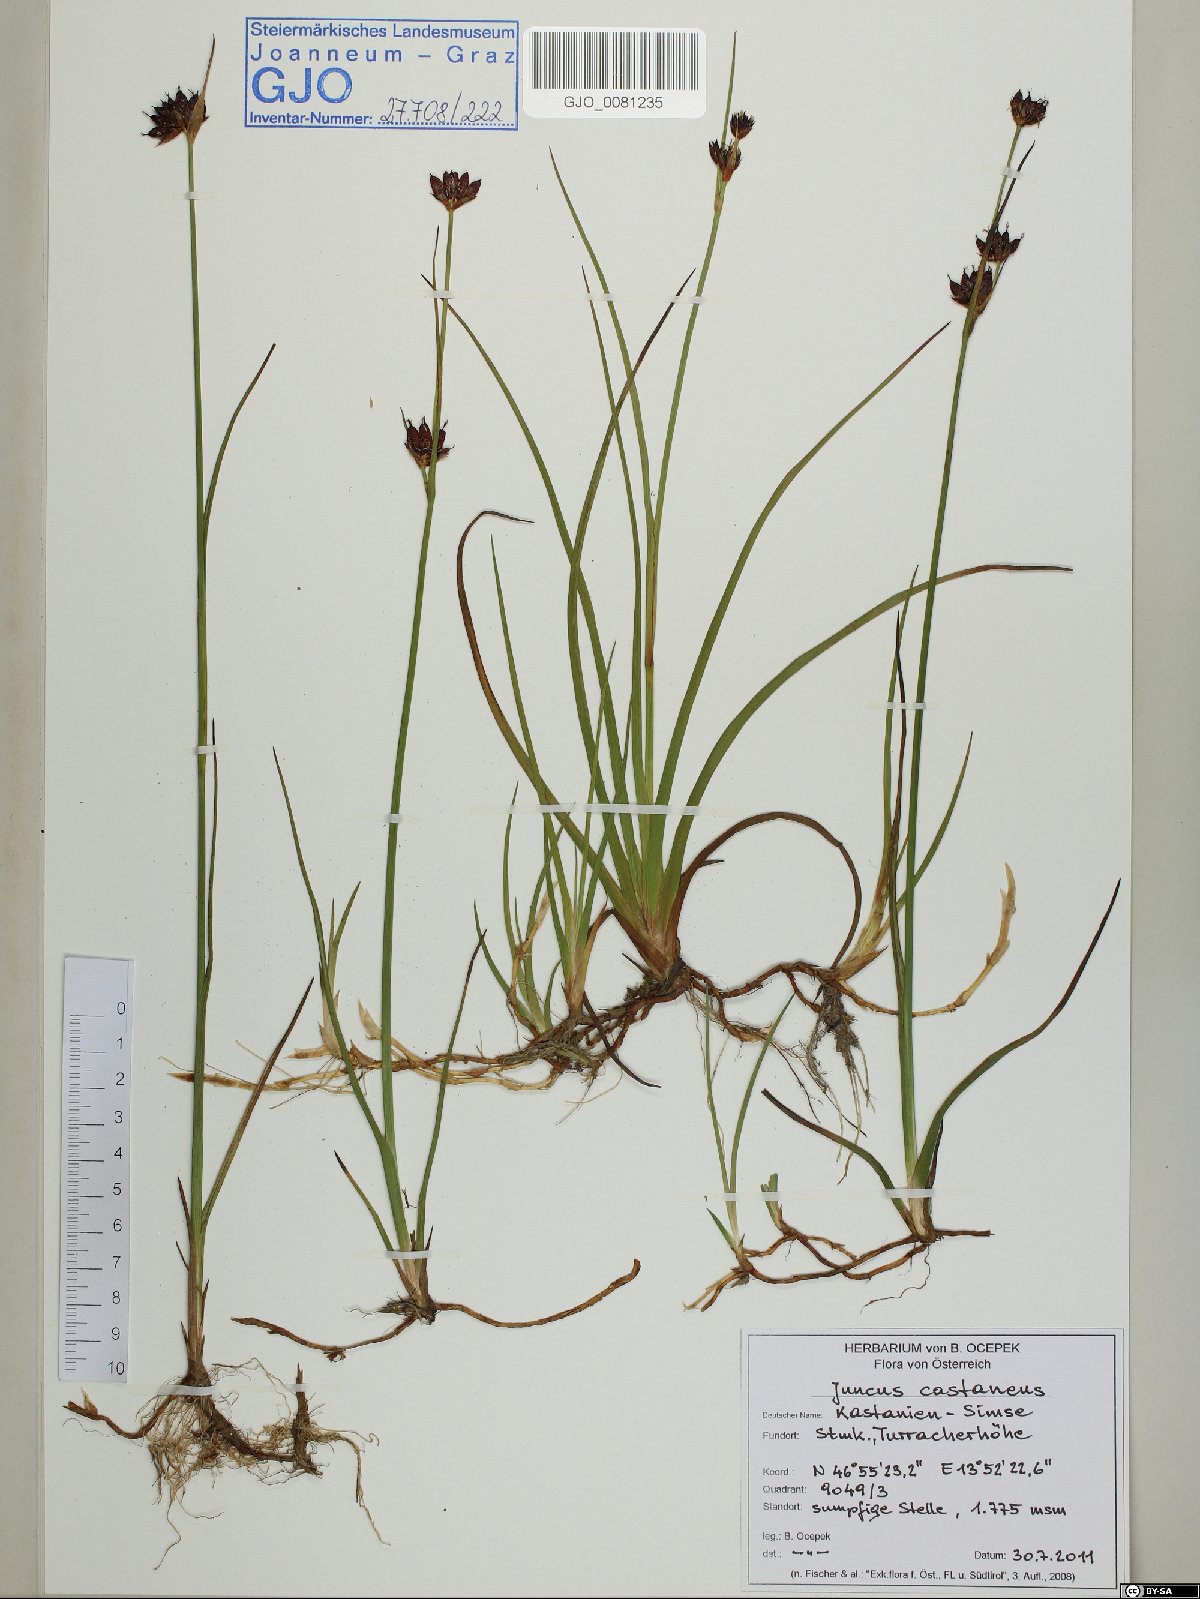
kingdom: Plantae
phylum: Tracheophyta
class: Liliopsida
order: Poales
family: Juncaceae
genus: Juncus
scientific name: Juncus castaneus
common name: Chestnut rush
